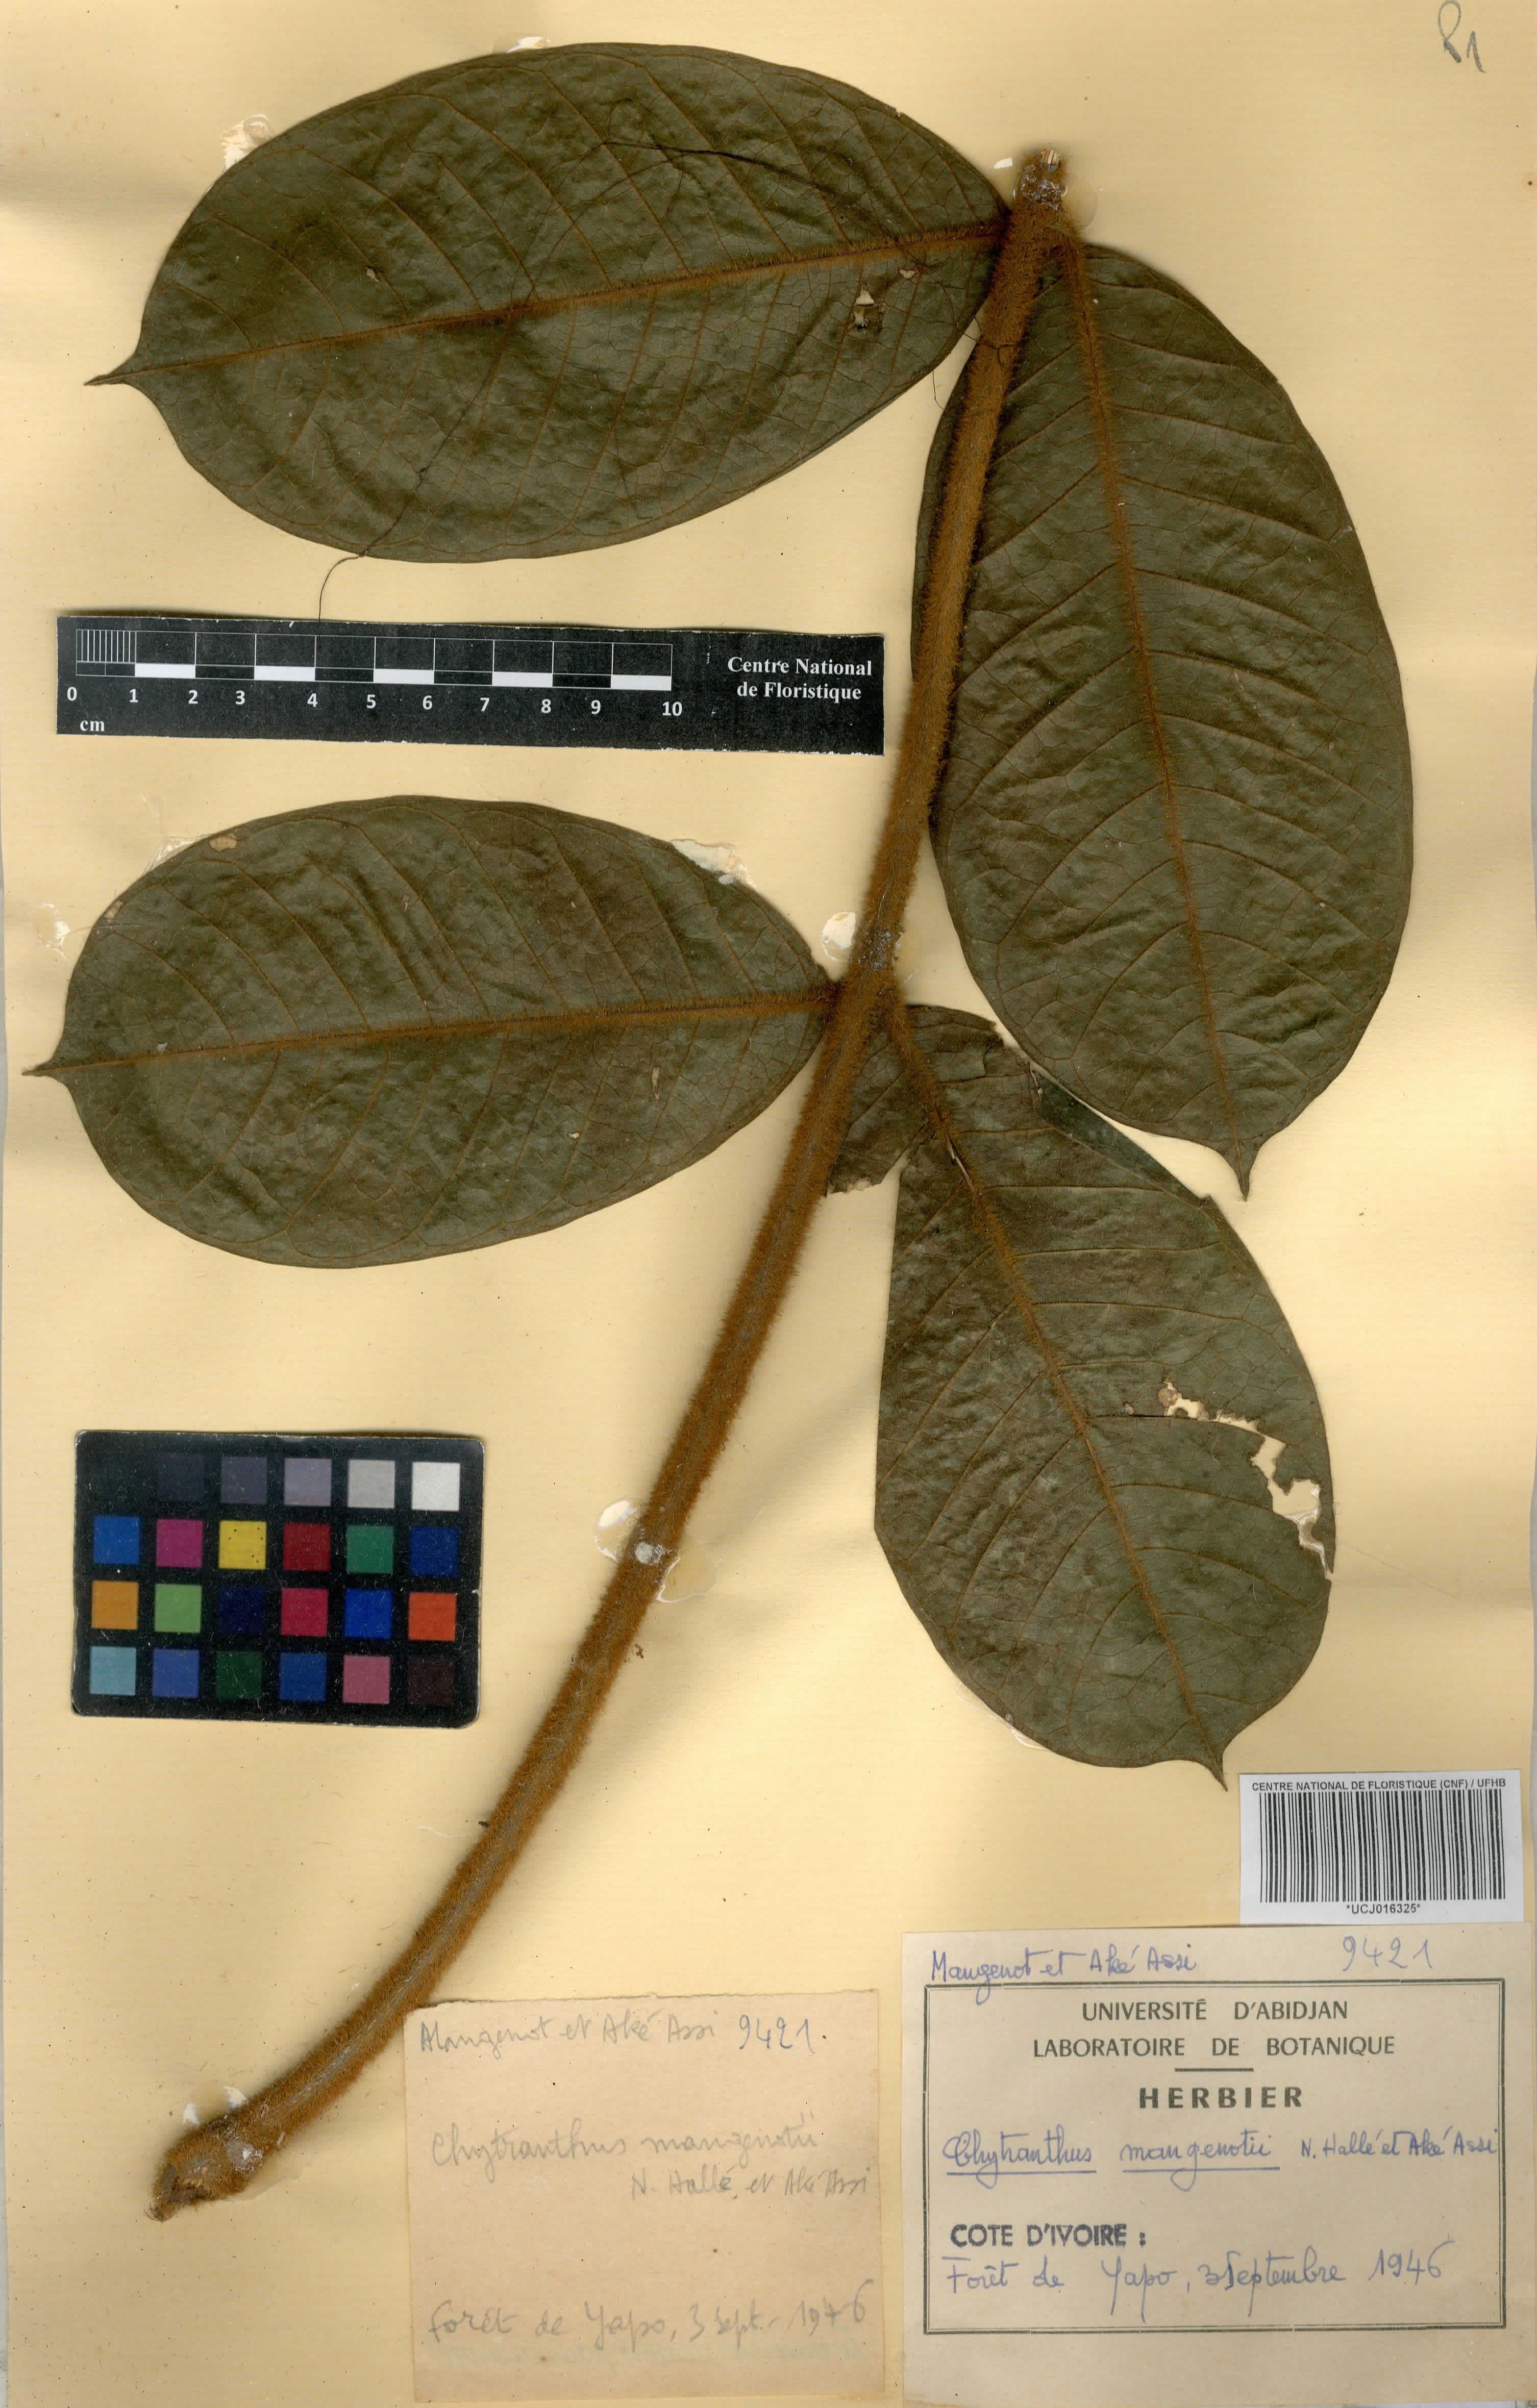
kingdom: Plantae
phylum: Tracheophyta
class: Magnoliopsida
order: Sapindales
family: Sapindaceae
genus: Chytranthus
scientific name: Chytranthus cauliflorus
